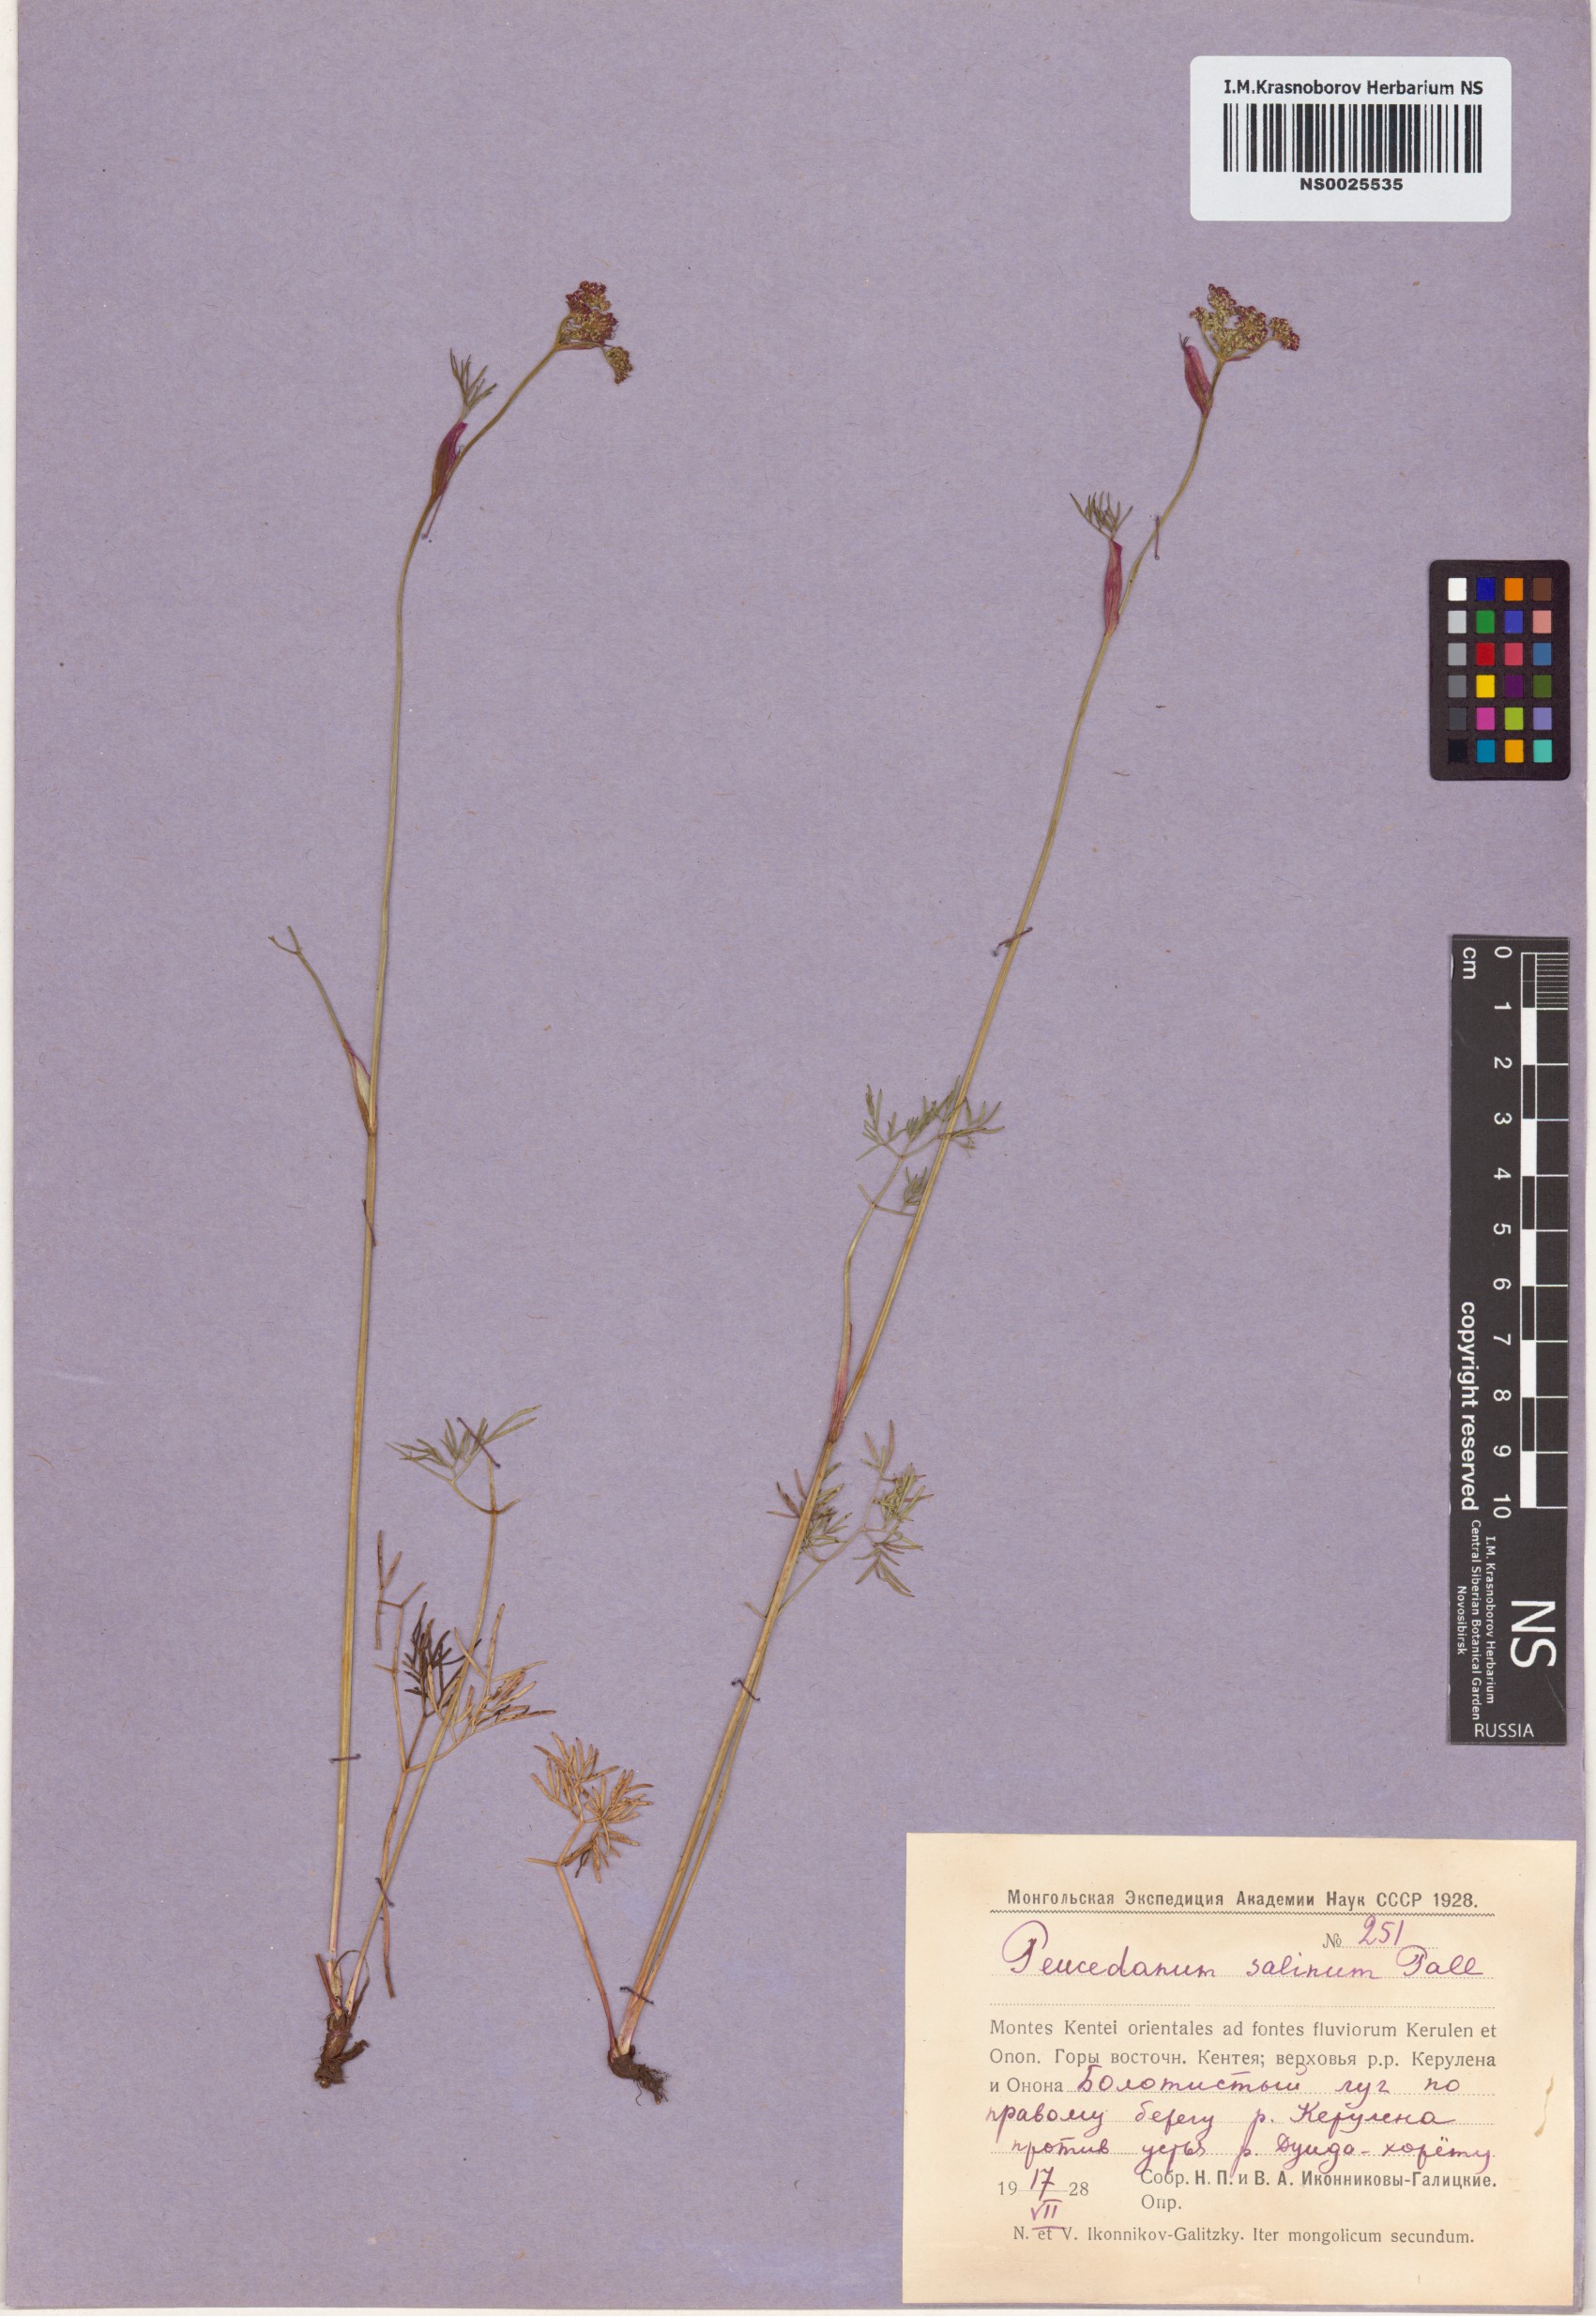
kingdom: Plantae
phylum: Tracheophyta
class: Magnoliopsida
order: Apiales
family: Apiaceae
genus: Ostericum
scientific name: Ostericum tenuifolium
